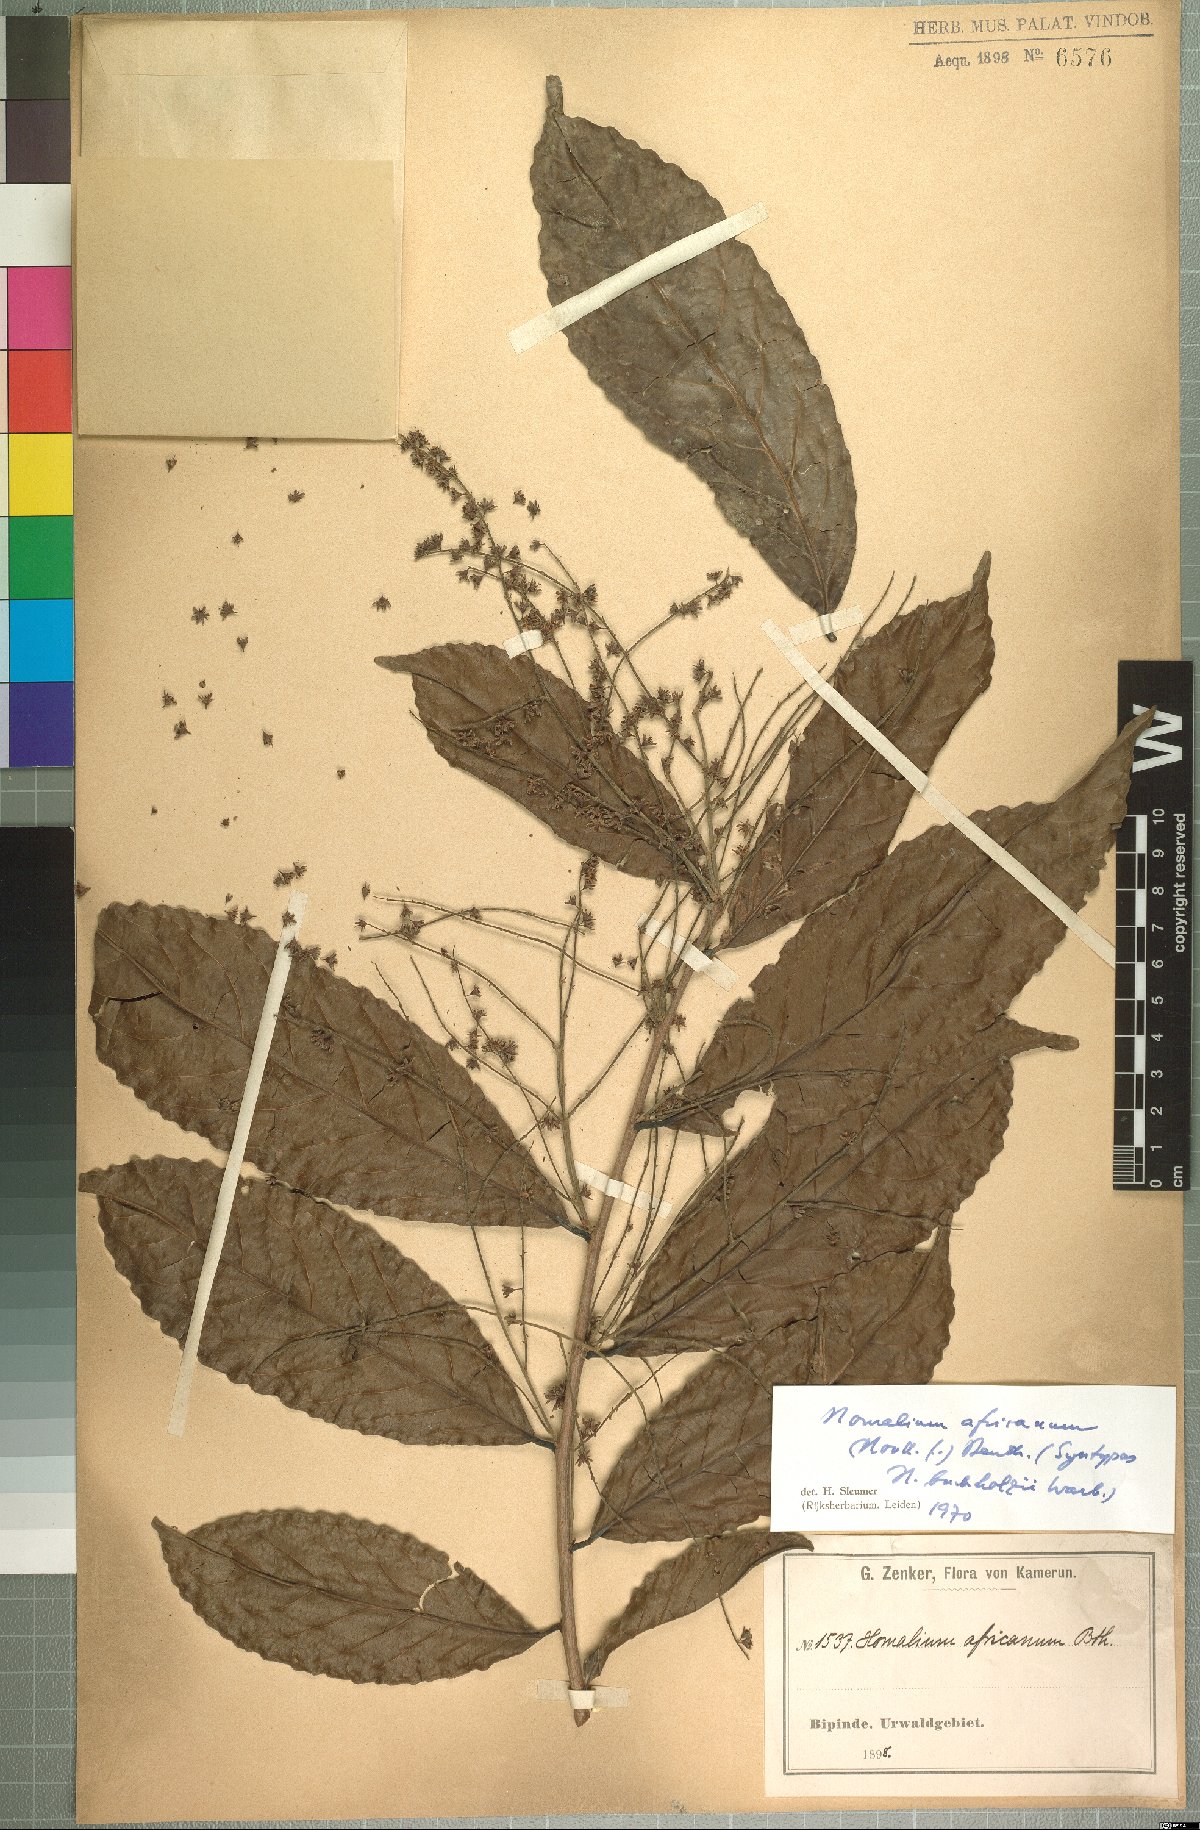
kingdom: Plantae
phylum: Tracheophyta
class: Magnoliopsida
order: Malpighiales
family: Salicaceae
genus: Homalium
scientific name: Homalium africanum
